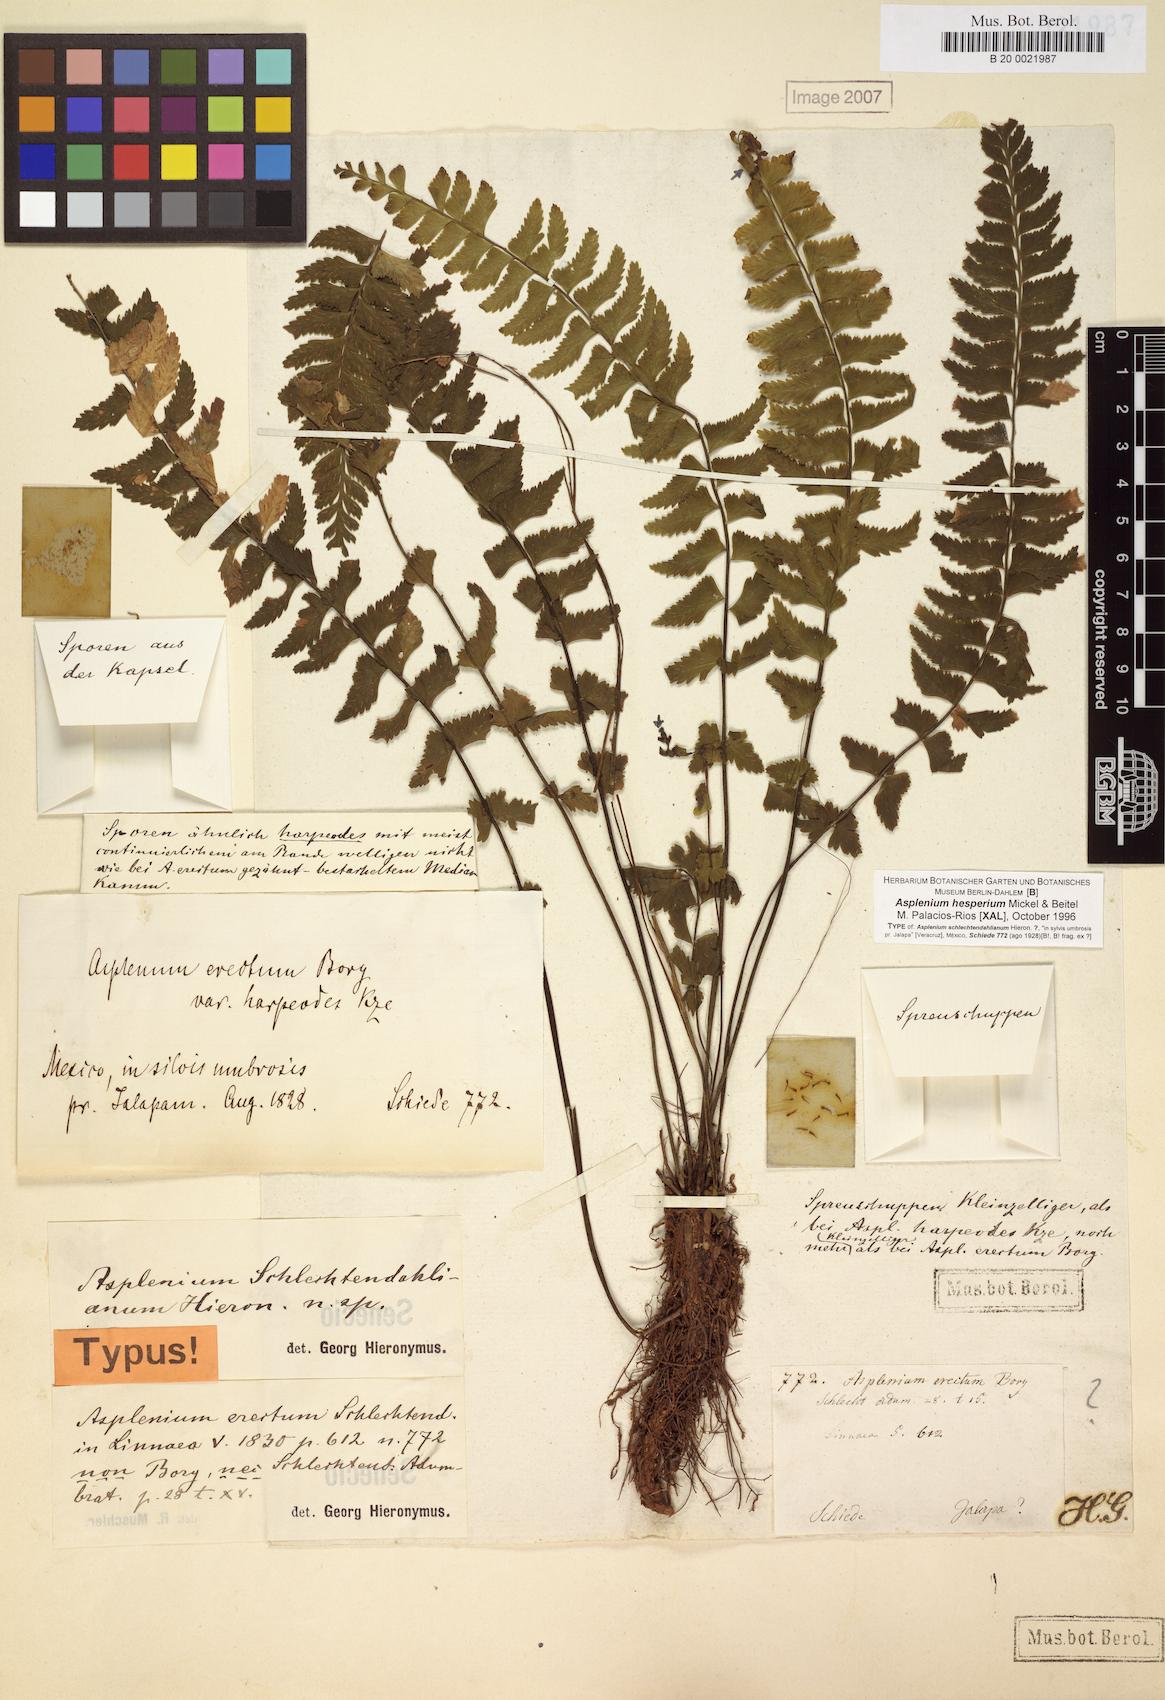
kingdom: Plantae
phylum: Tracheophyta
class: Polypodiopsida
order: Polypodiales
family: Aspleniaceae
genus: Asplenium
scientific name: Asplenium miradorense
